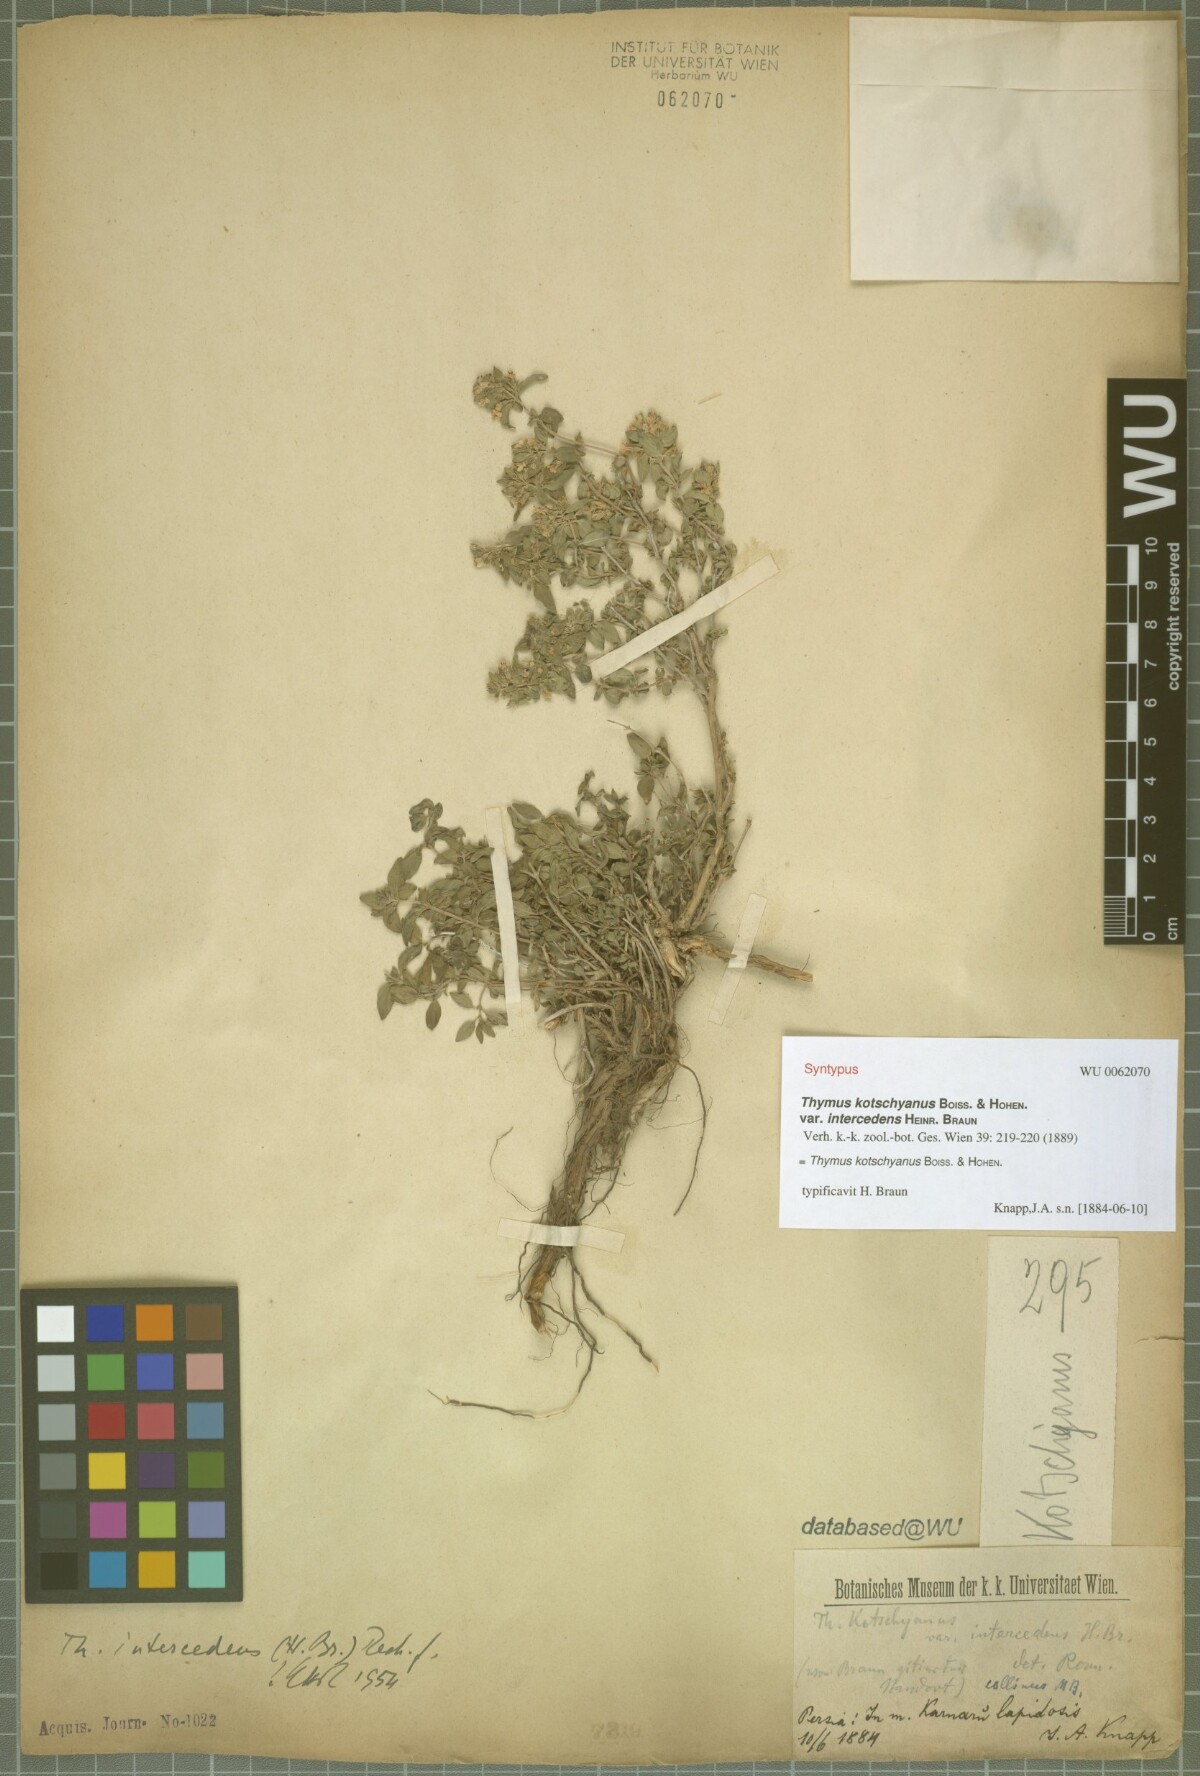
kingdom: Plantae
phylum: Tracheophyta
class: Magnoliopsida
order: Lamiales
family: Lamiaceae
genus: Thymus
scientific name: Thymus kotschyanus
